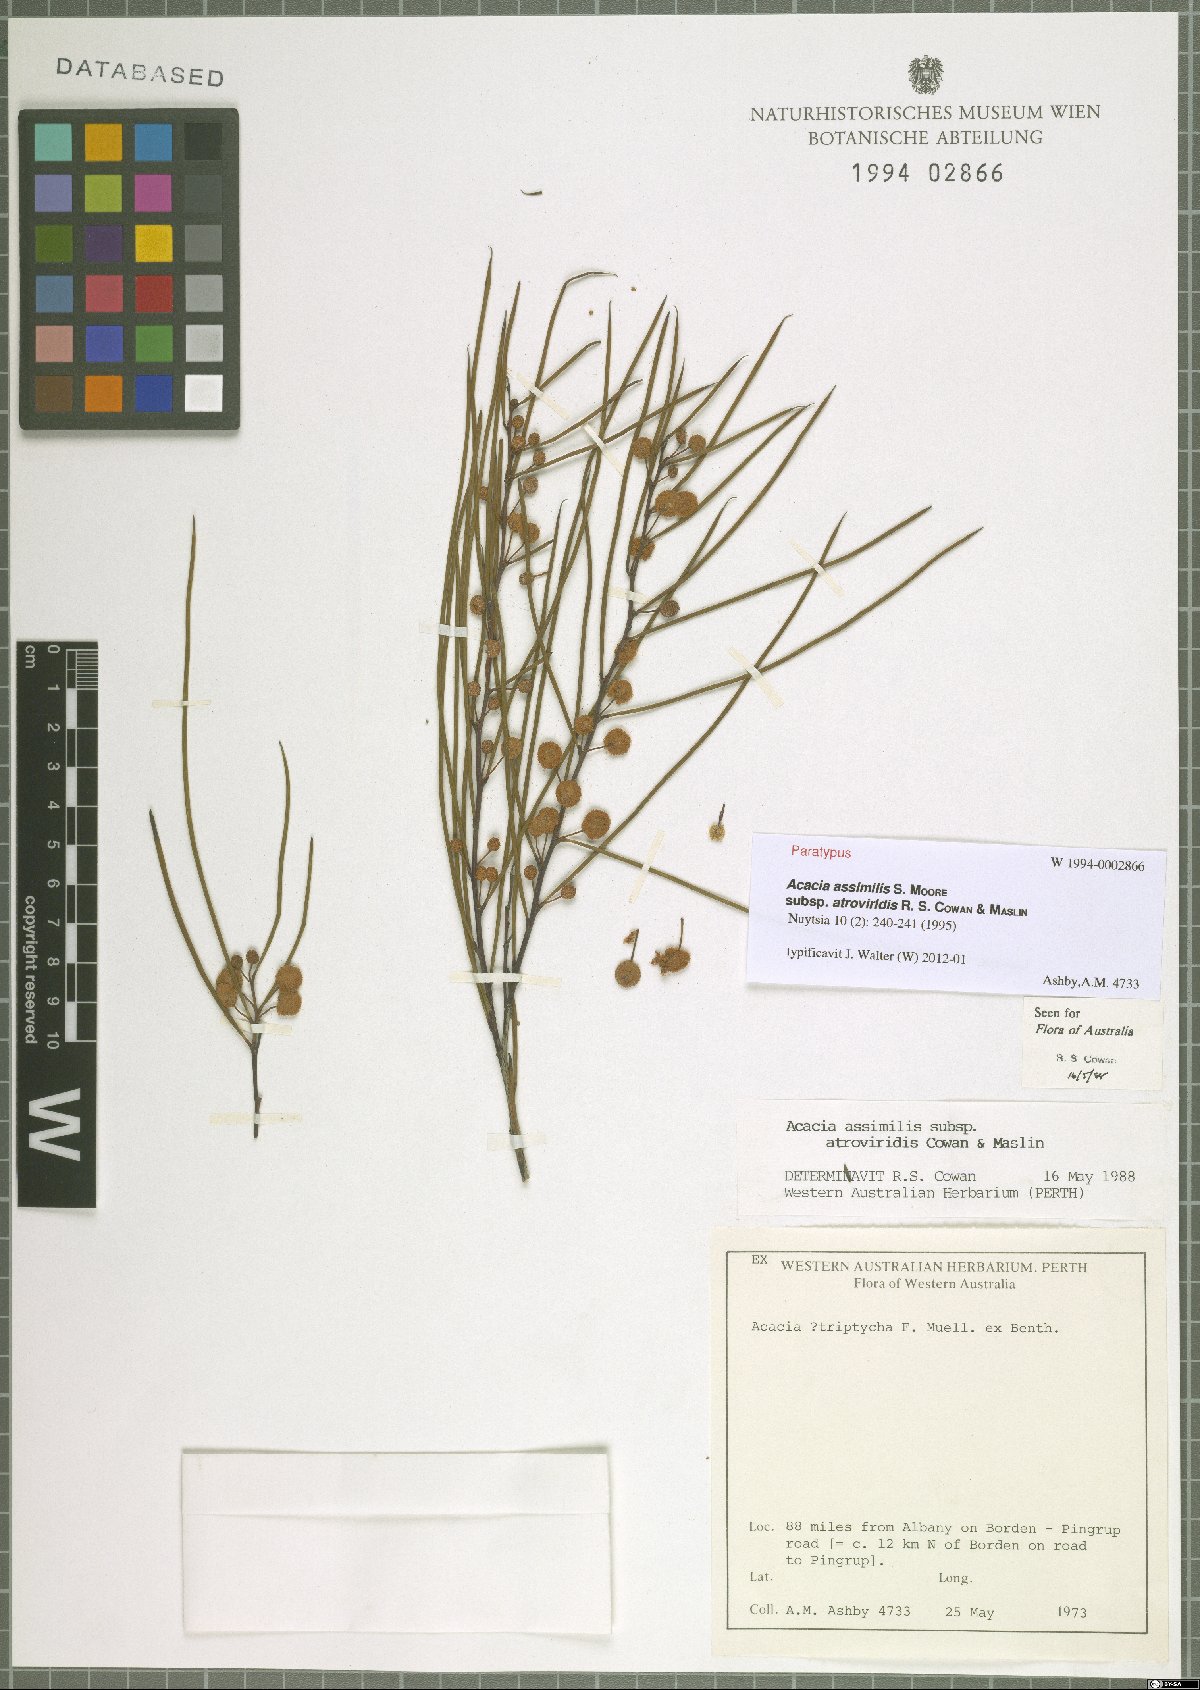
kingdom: Plantae
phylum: Tracheophyta
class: Magnoliopsida
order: Fabales
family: Fabaceae
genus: Acacia
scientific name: Acacia assimilis
